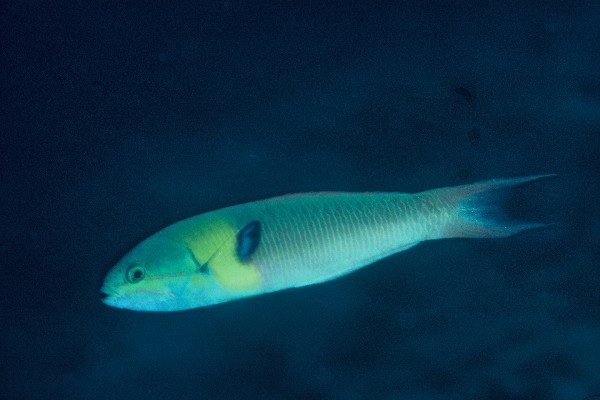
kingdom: Animalia
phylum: Chordata
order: Perciformes
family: Labridae
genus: Thalassoma
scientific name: Thalassoma amblycephalum
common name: Bluehead wrasse
